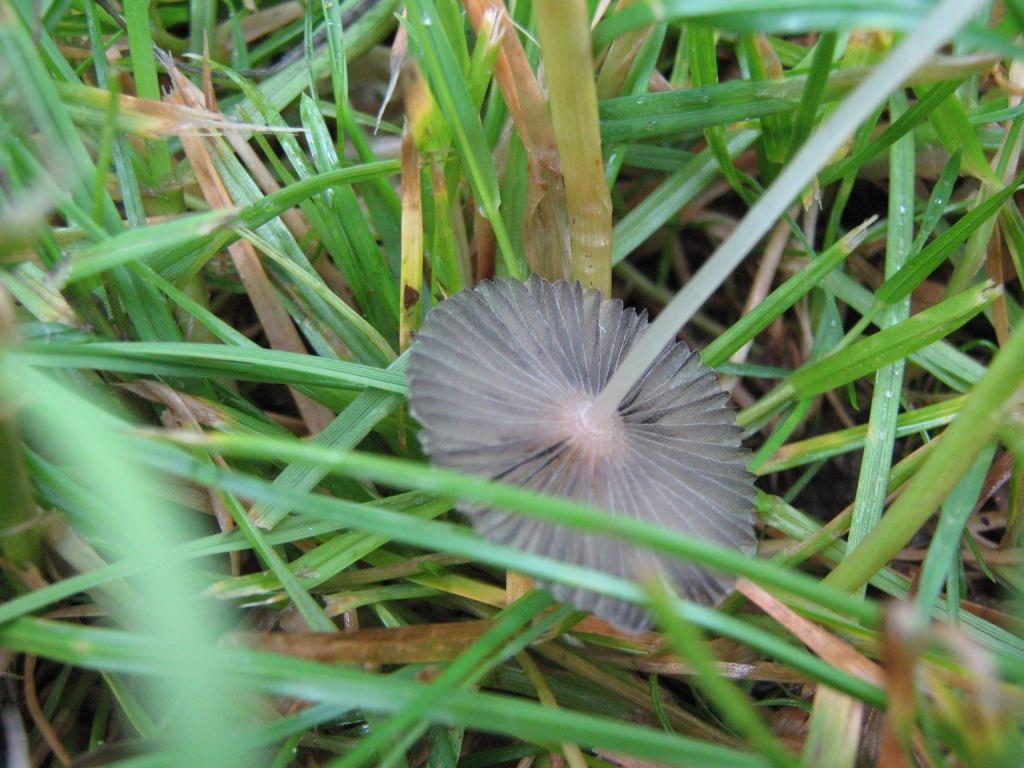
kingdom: Fungi
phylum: Basidiomycota
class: Agaricomycetes
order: Agaricales
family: Psathyrellaceae
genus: Parasola
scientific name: Parasola lactea
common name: glat hjulhat
